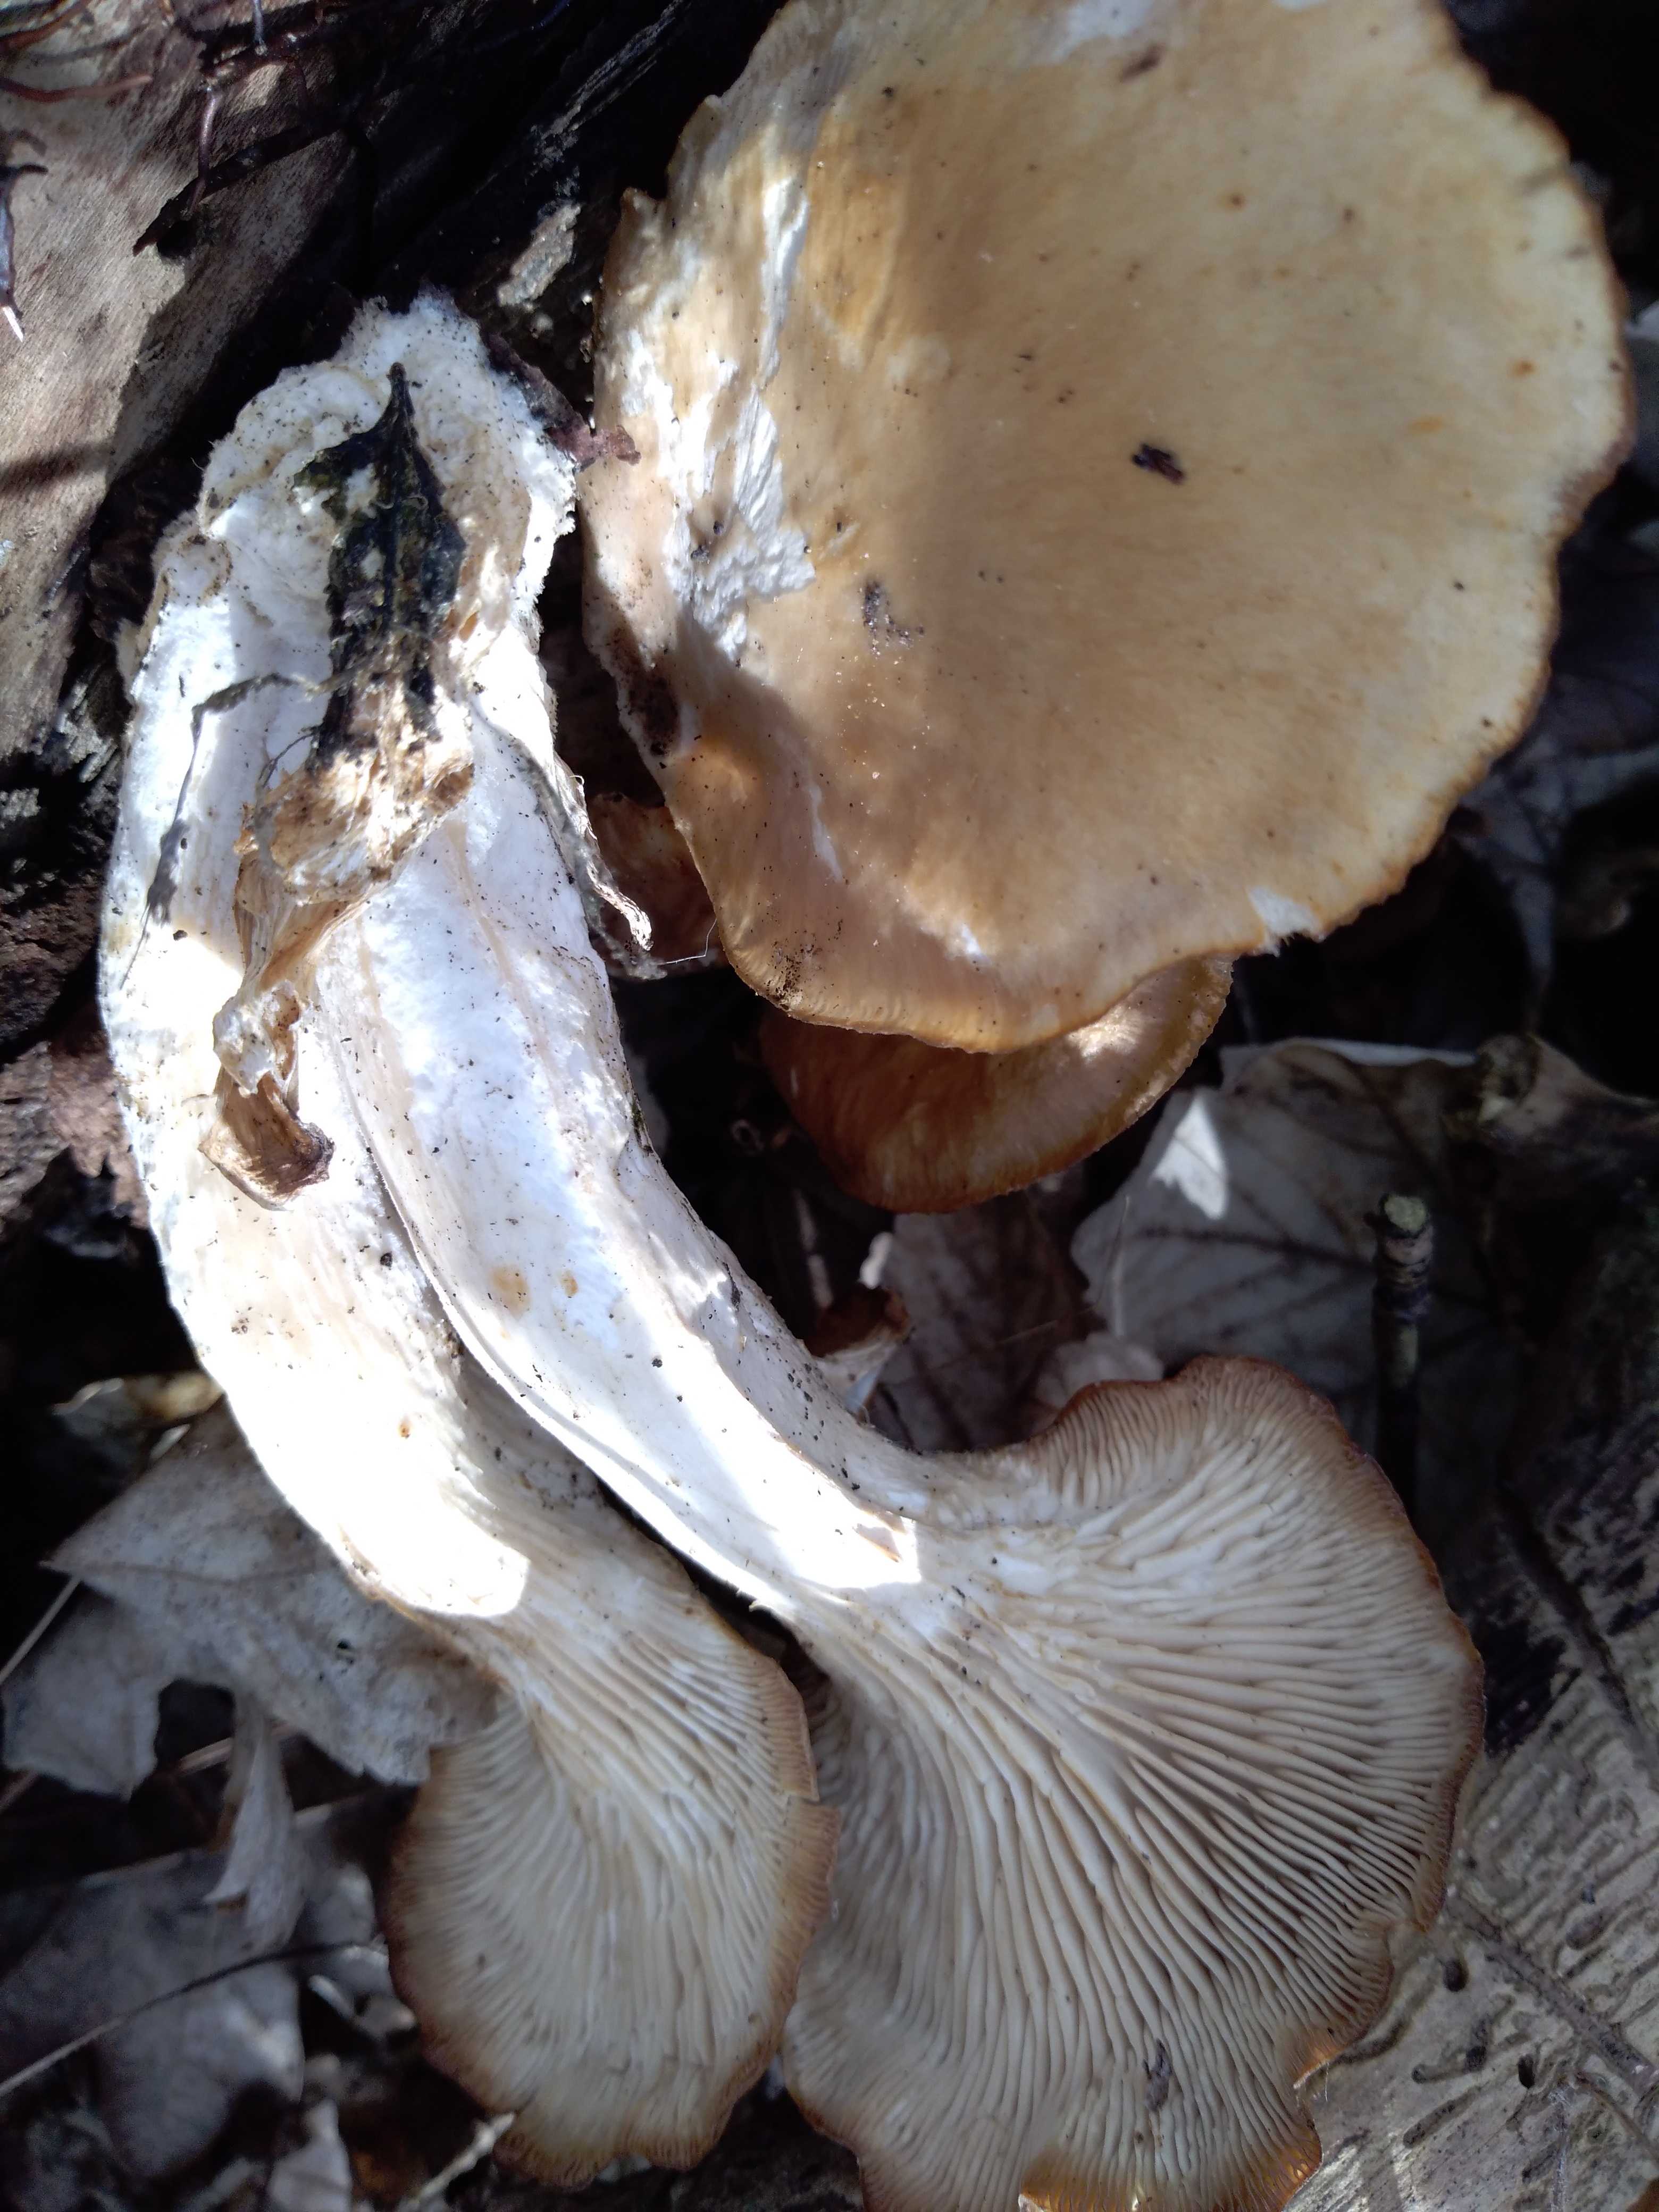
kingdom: Fungi
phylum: Basidiomycota
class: Agaricomycetes
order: Agaricales
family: Pleurotaceae
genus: Pleurotus
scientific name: Pleurotus ostreatus
